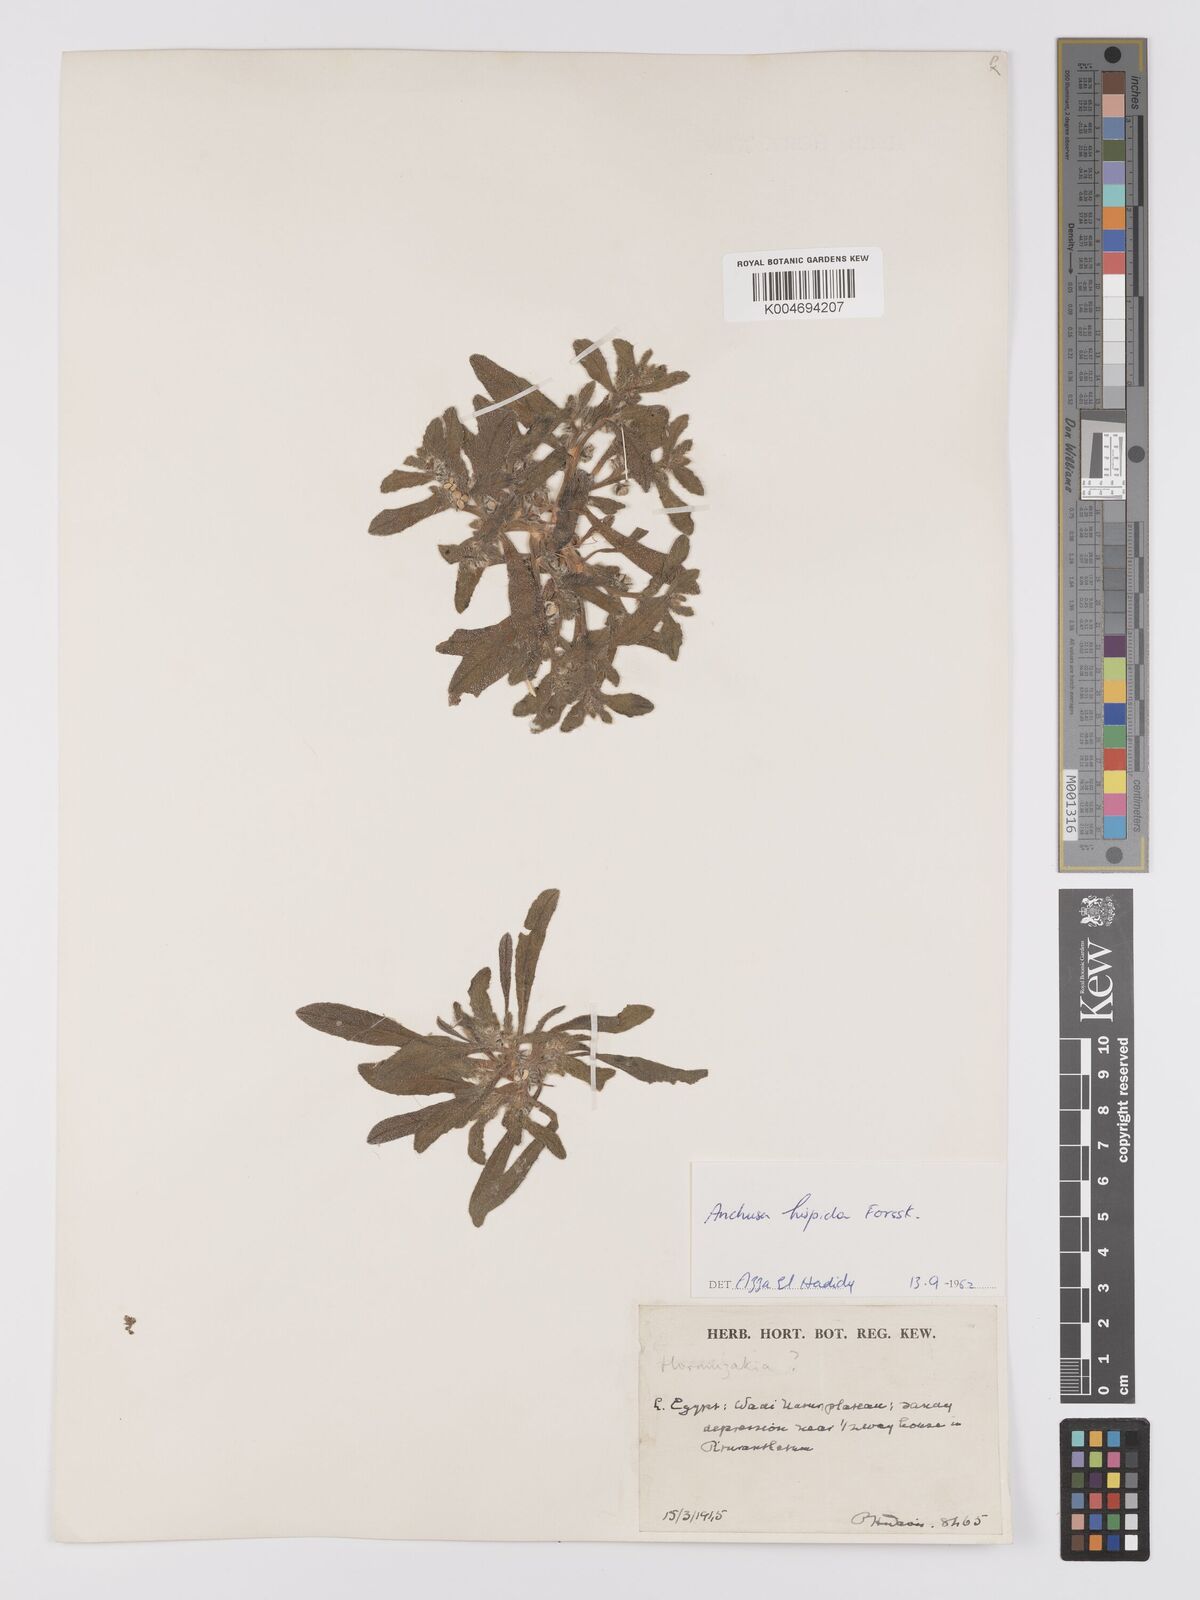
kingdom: Plantae
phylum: Tracheophyta
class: Magnoliopsida
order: Boraginales
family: Boraginaceae
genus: Gastrocotyle
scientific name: Gastrocotyle hispida
